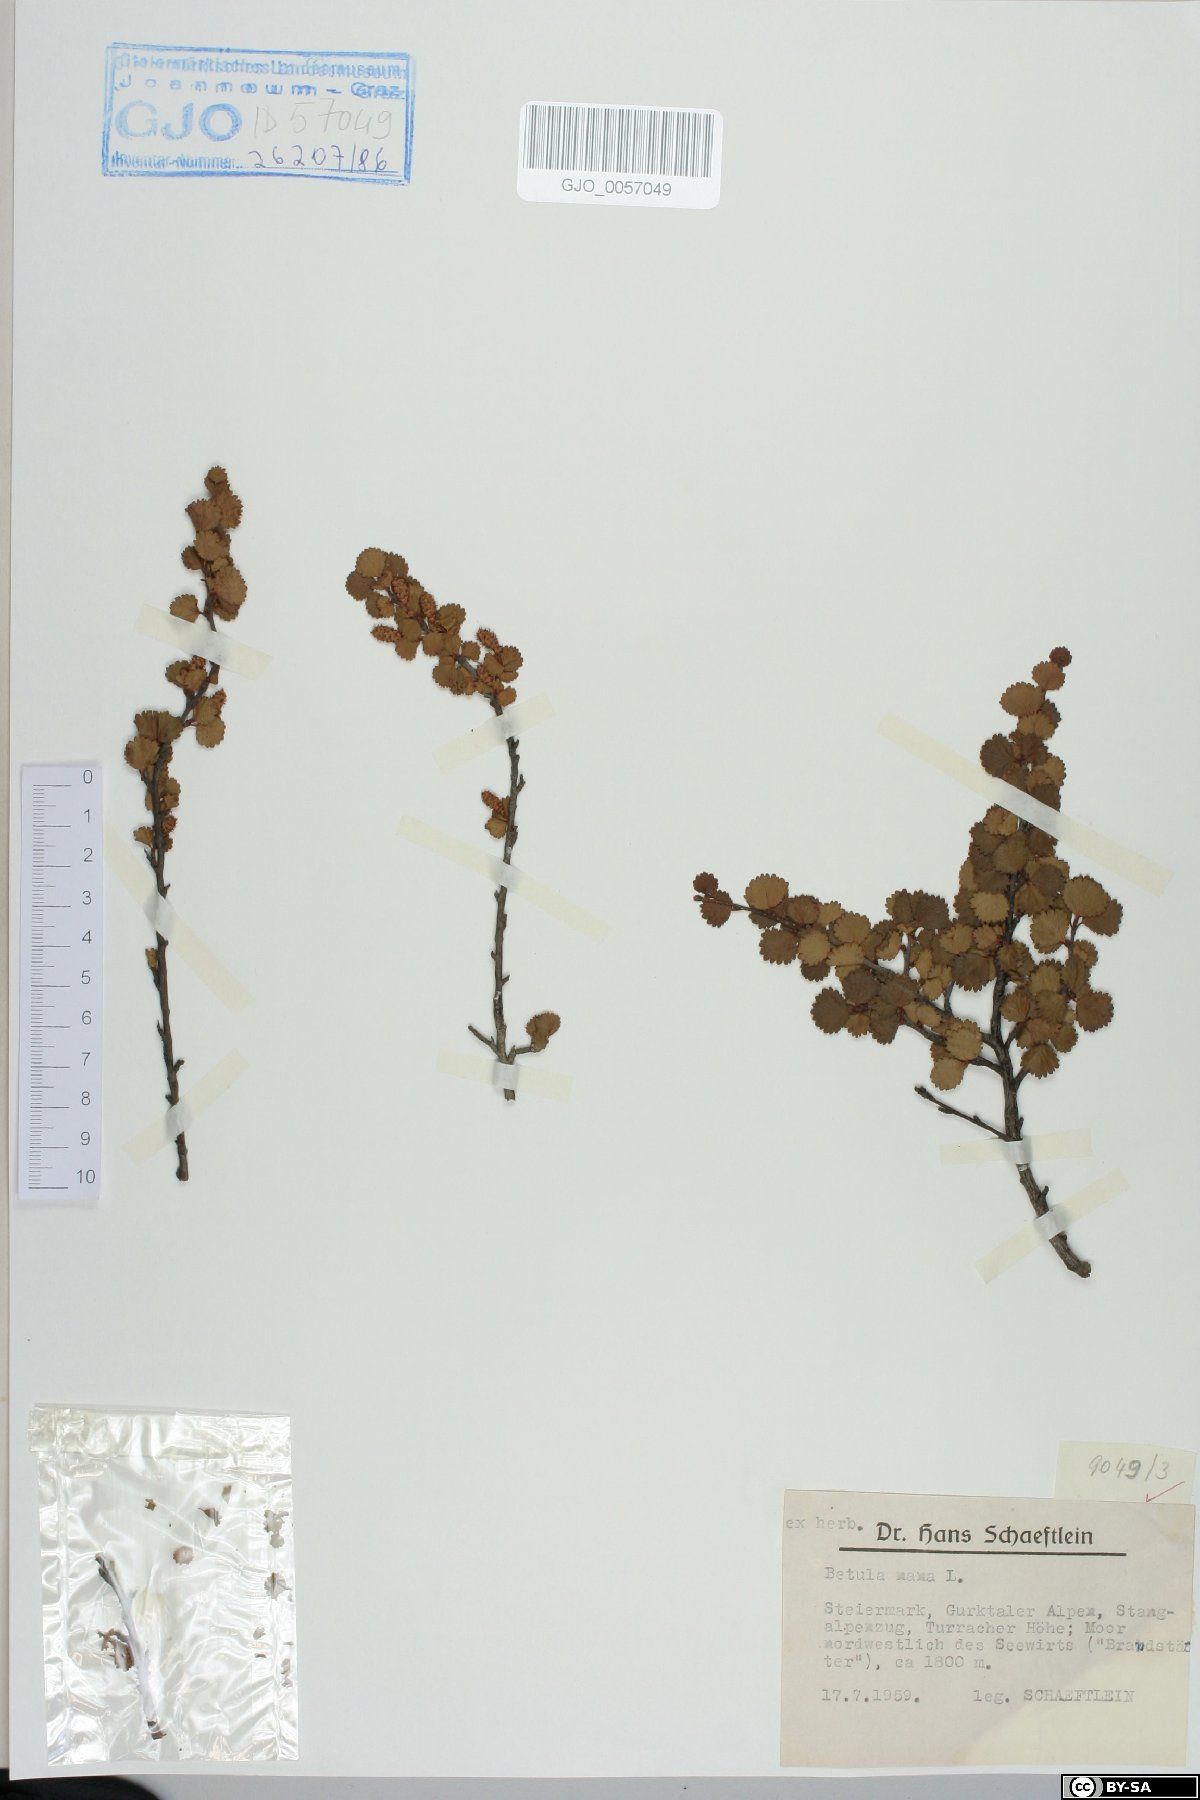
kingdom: Plantae
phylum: Tracheophyta
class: Magnoliopsida
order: Fagales
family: Betulaceae
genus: Betula
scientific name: Betula nana
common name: Arctic dwarf birch
